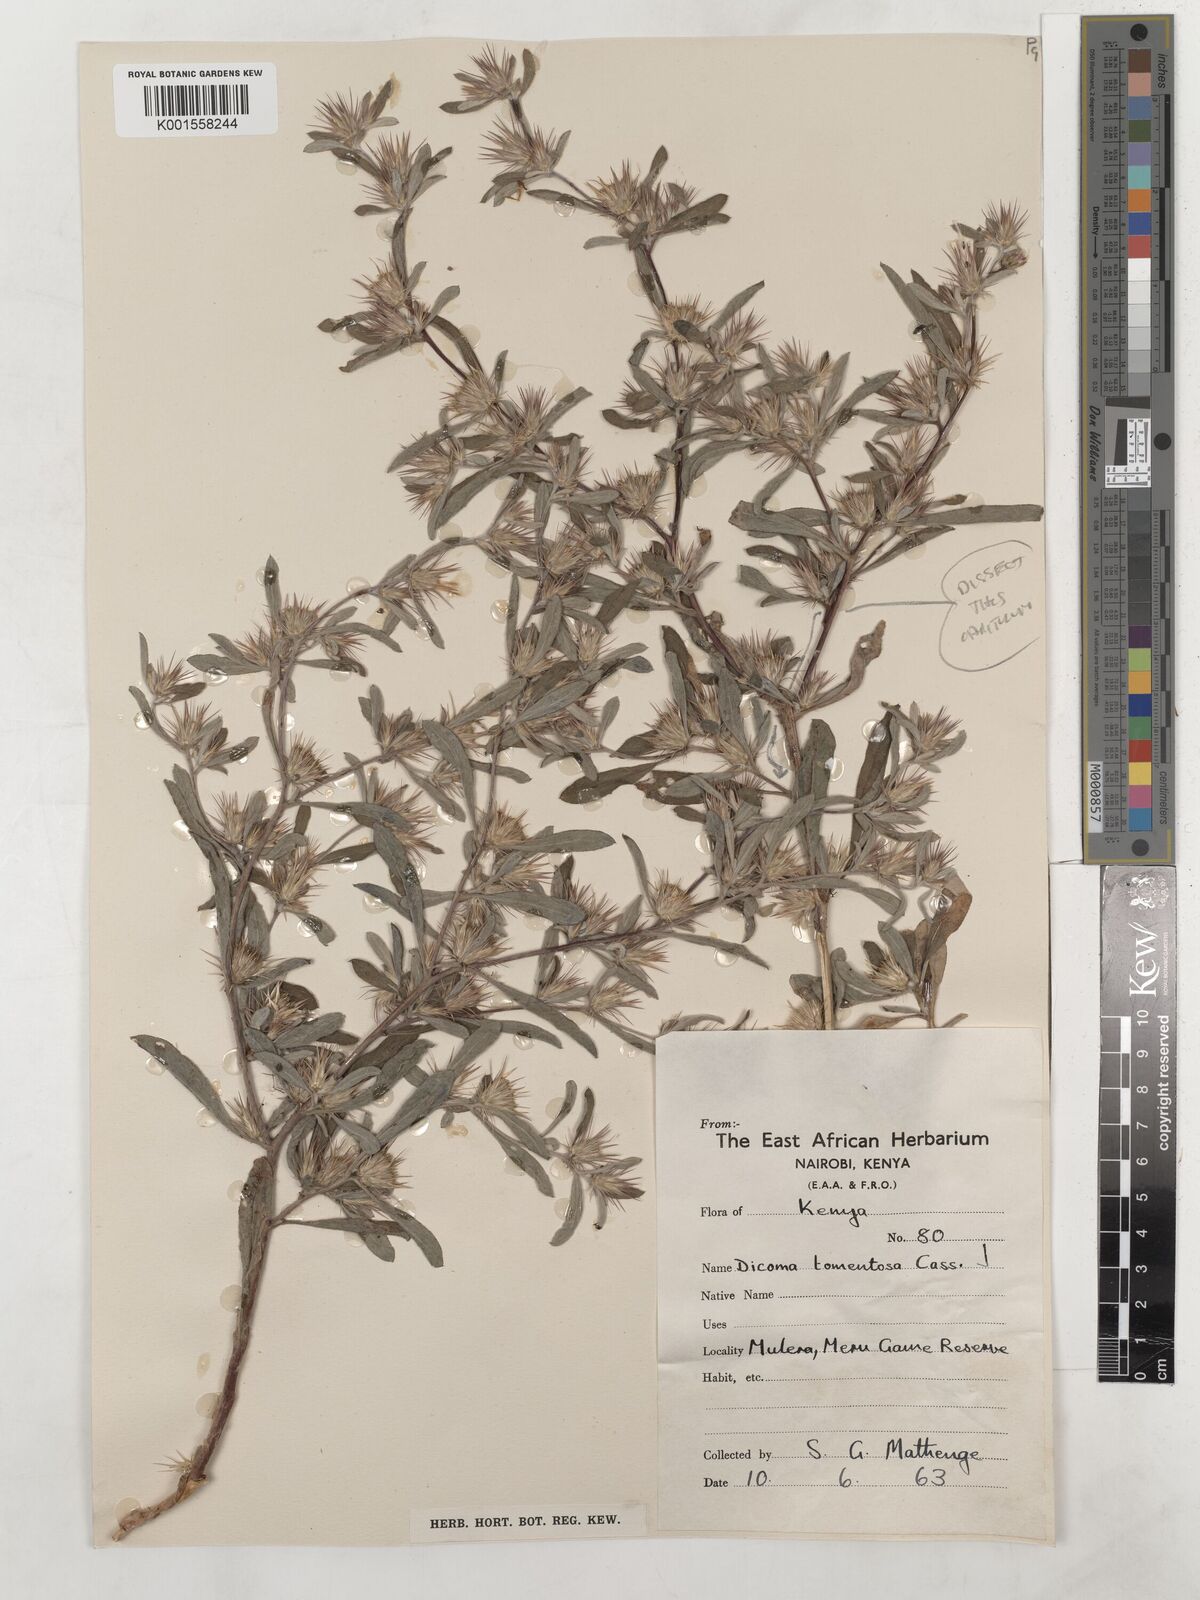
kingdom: Plantae
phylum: Tracheophyta
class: Magnoliopsida
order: Asterales
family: Asteraceae
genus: Dicoma
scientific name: Dicoma tomentosa
